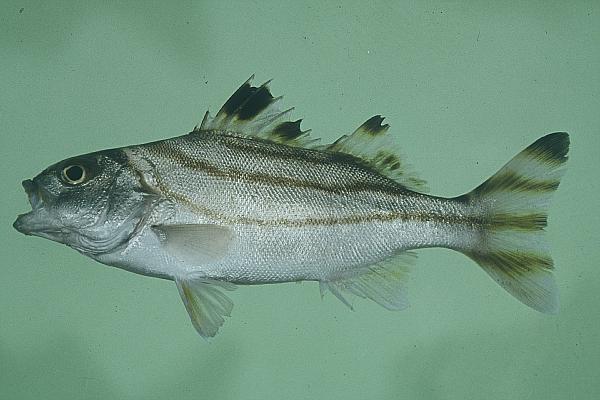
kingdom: Animalia
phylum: Chordata
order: Perciformes
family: Terapontidae
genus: Terapon
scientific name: Terapon jarbua
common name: Jarbua terapon
